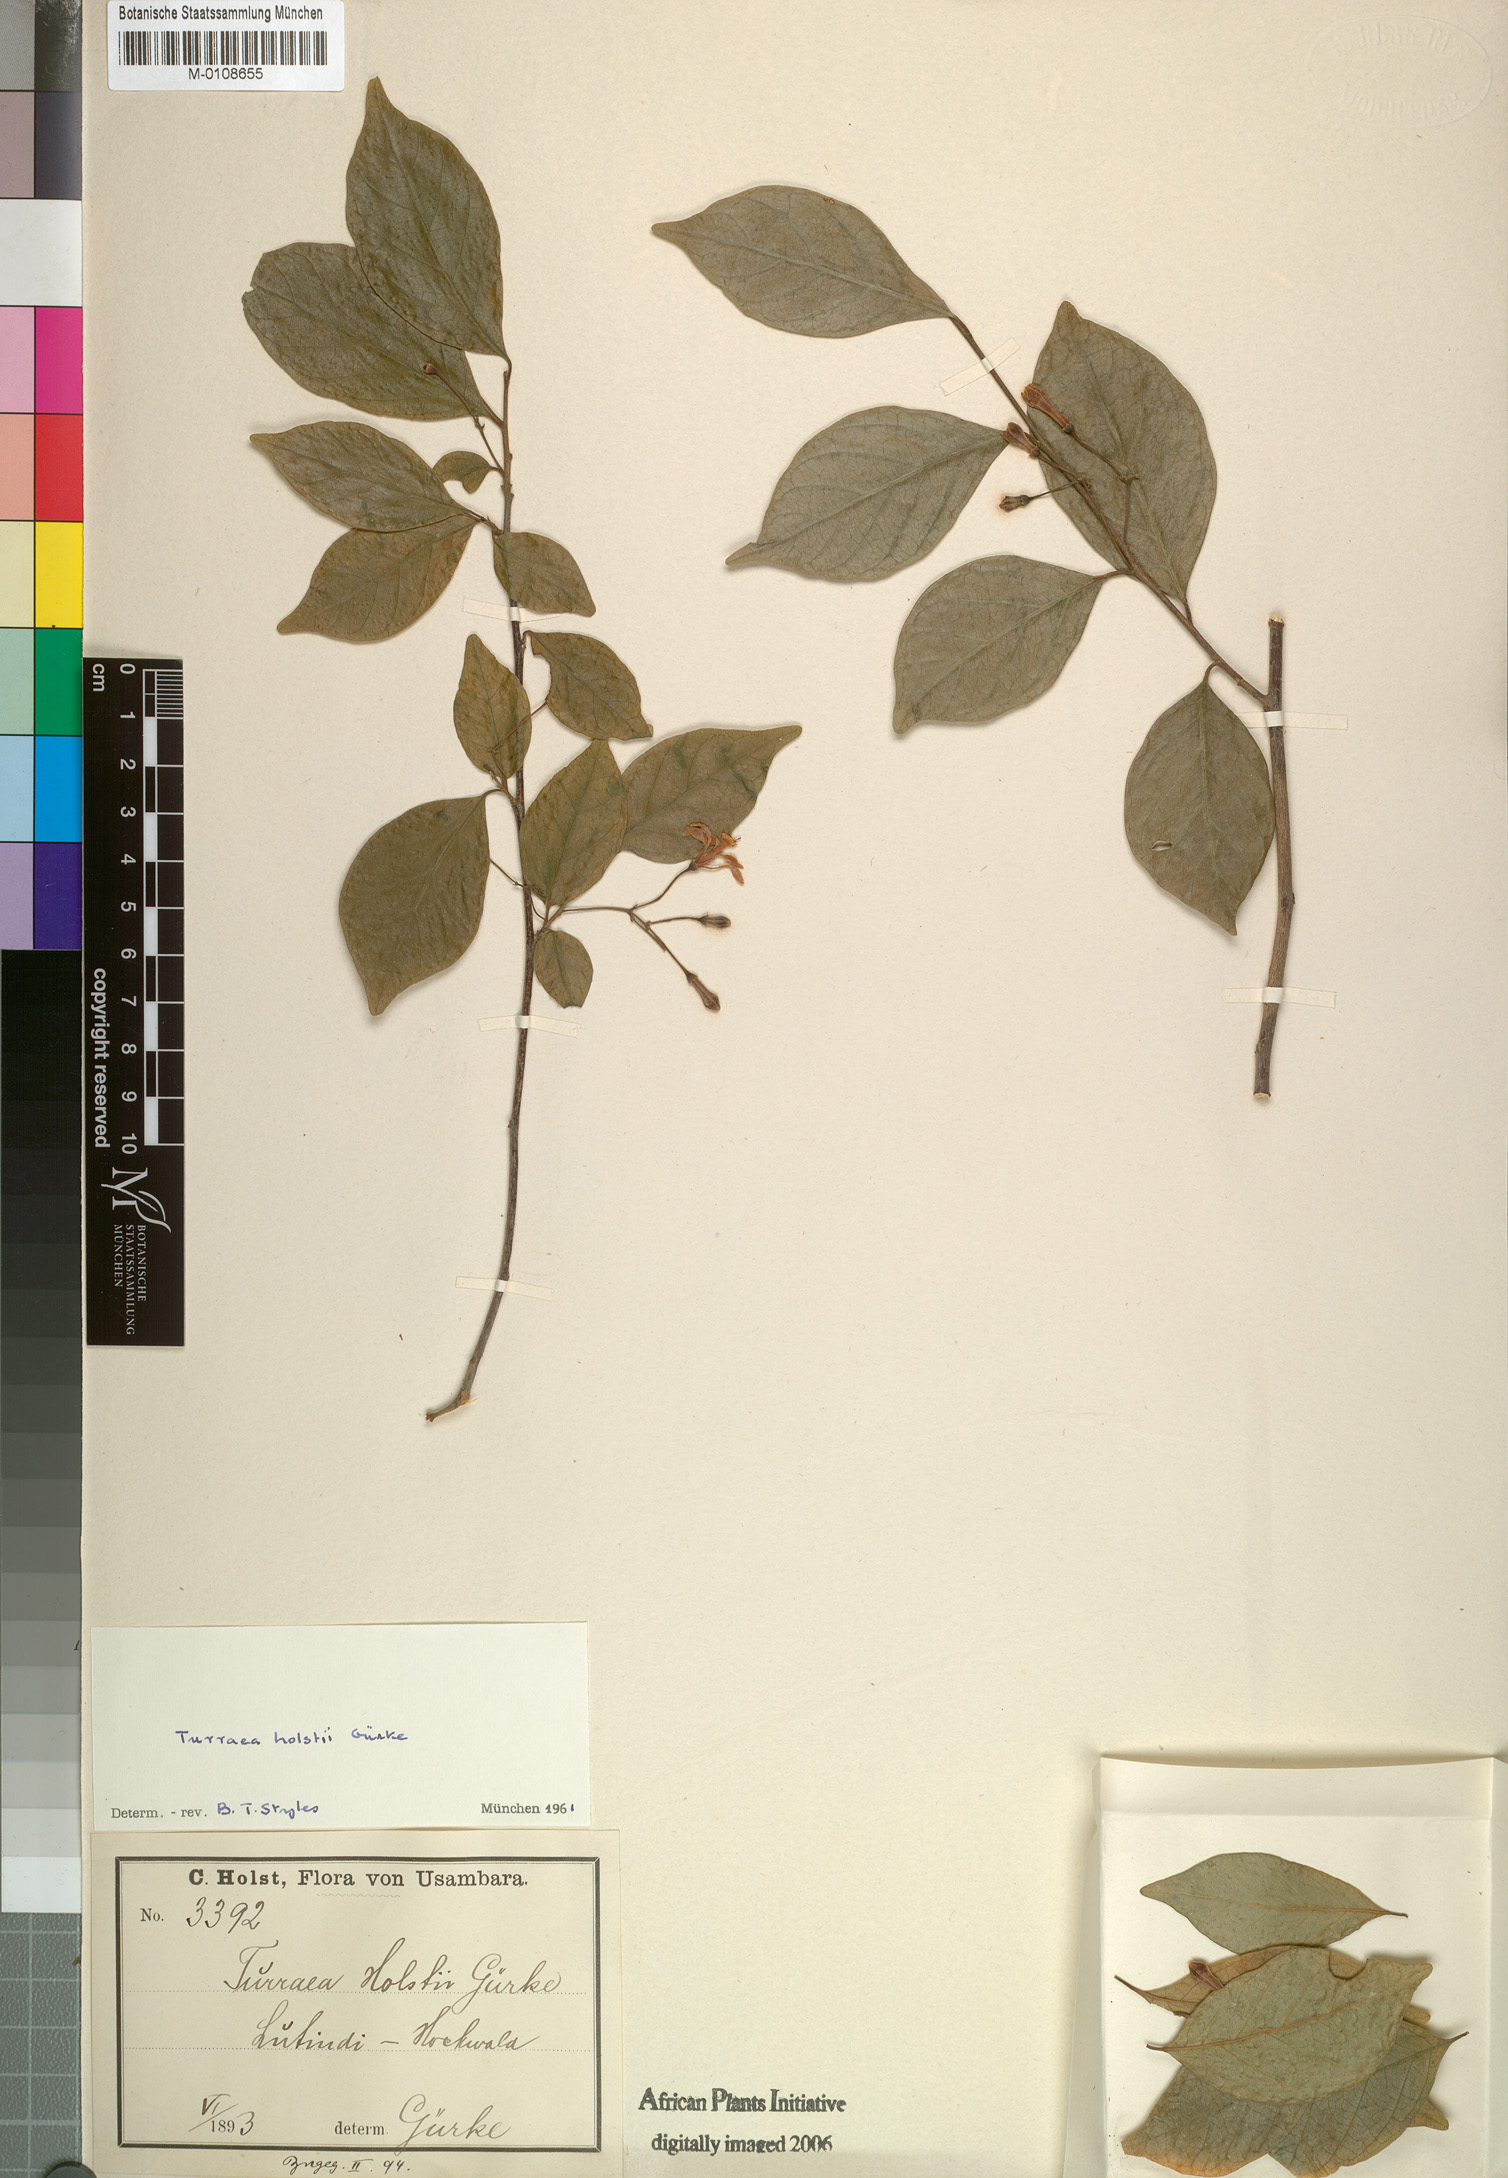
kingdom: Plantae
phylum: Tracheophyta
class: Magnoliopsida
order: Sapindales
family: Meliaceae
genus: Turraea
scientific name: Turraea holstii
